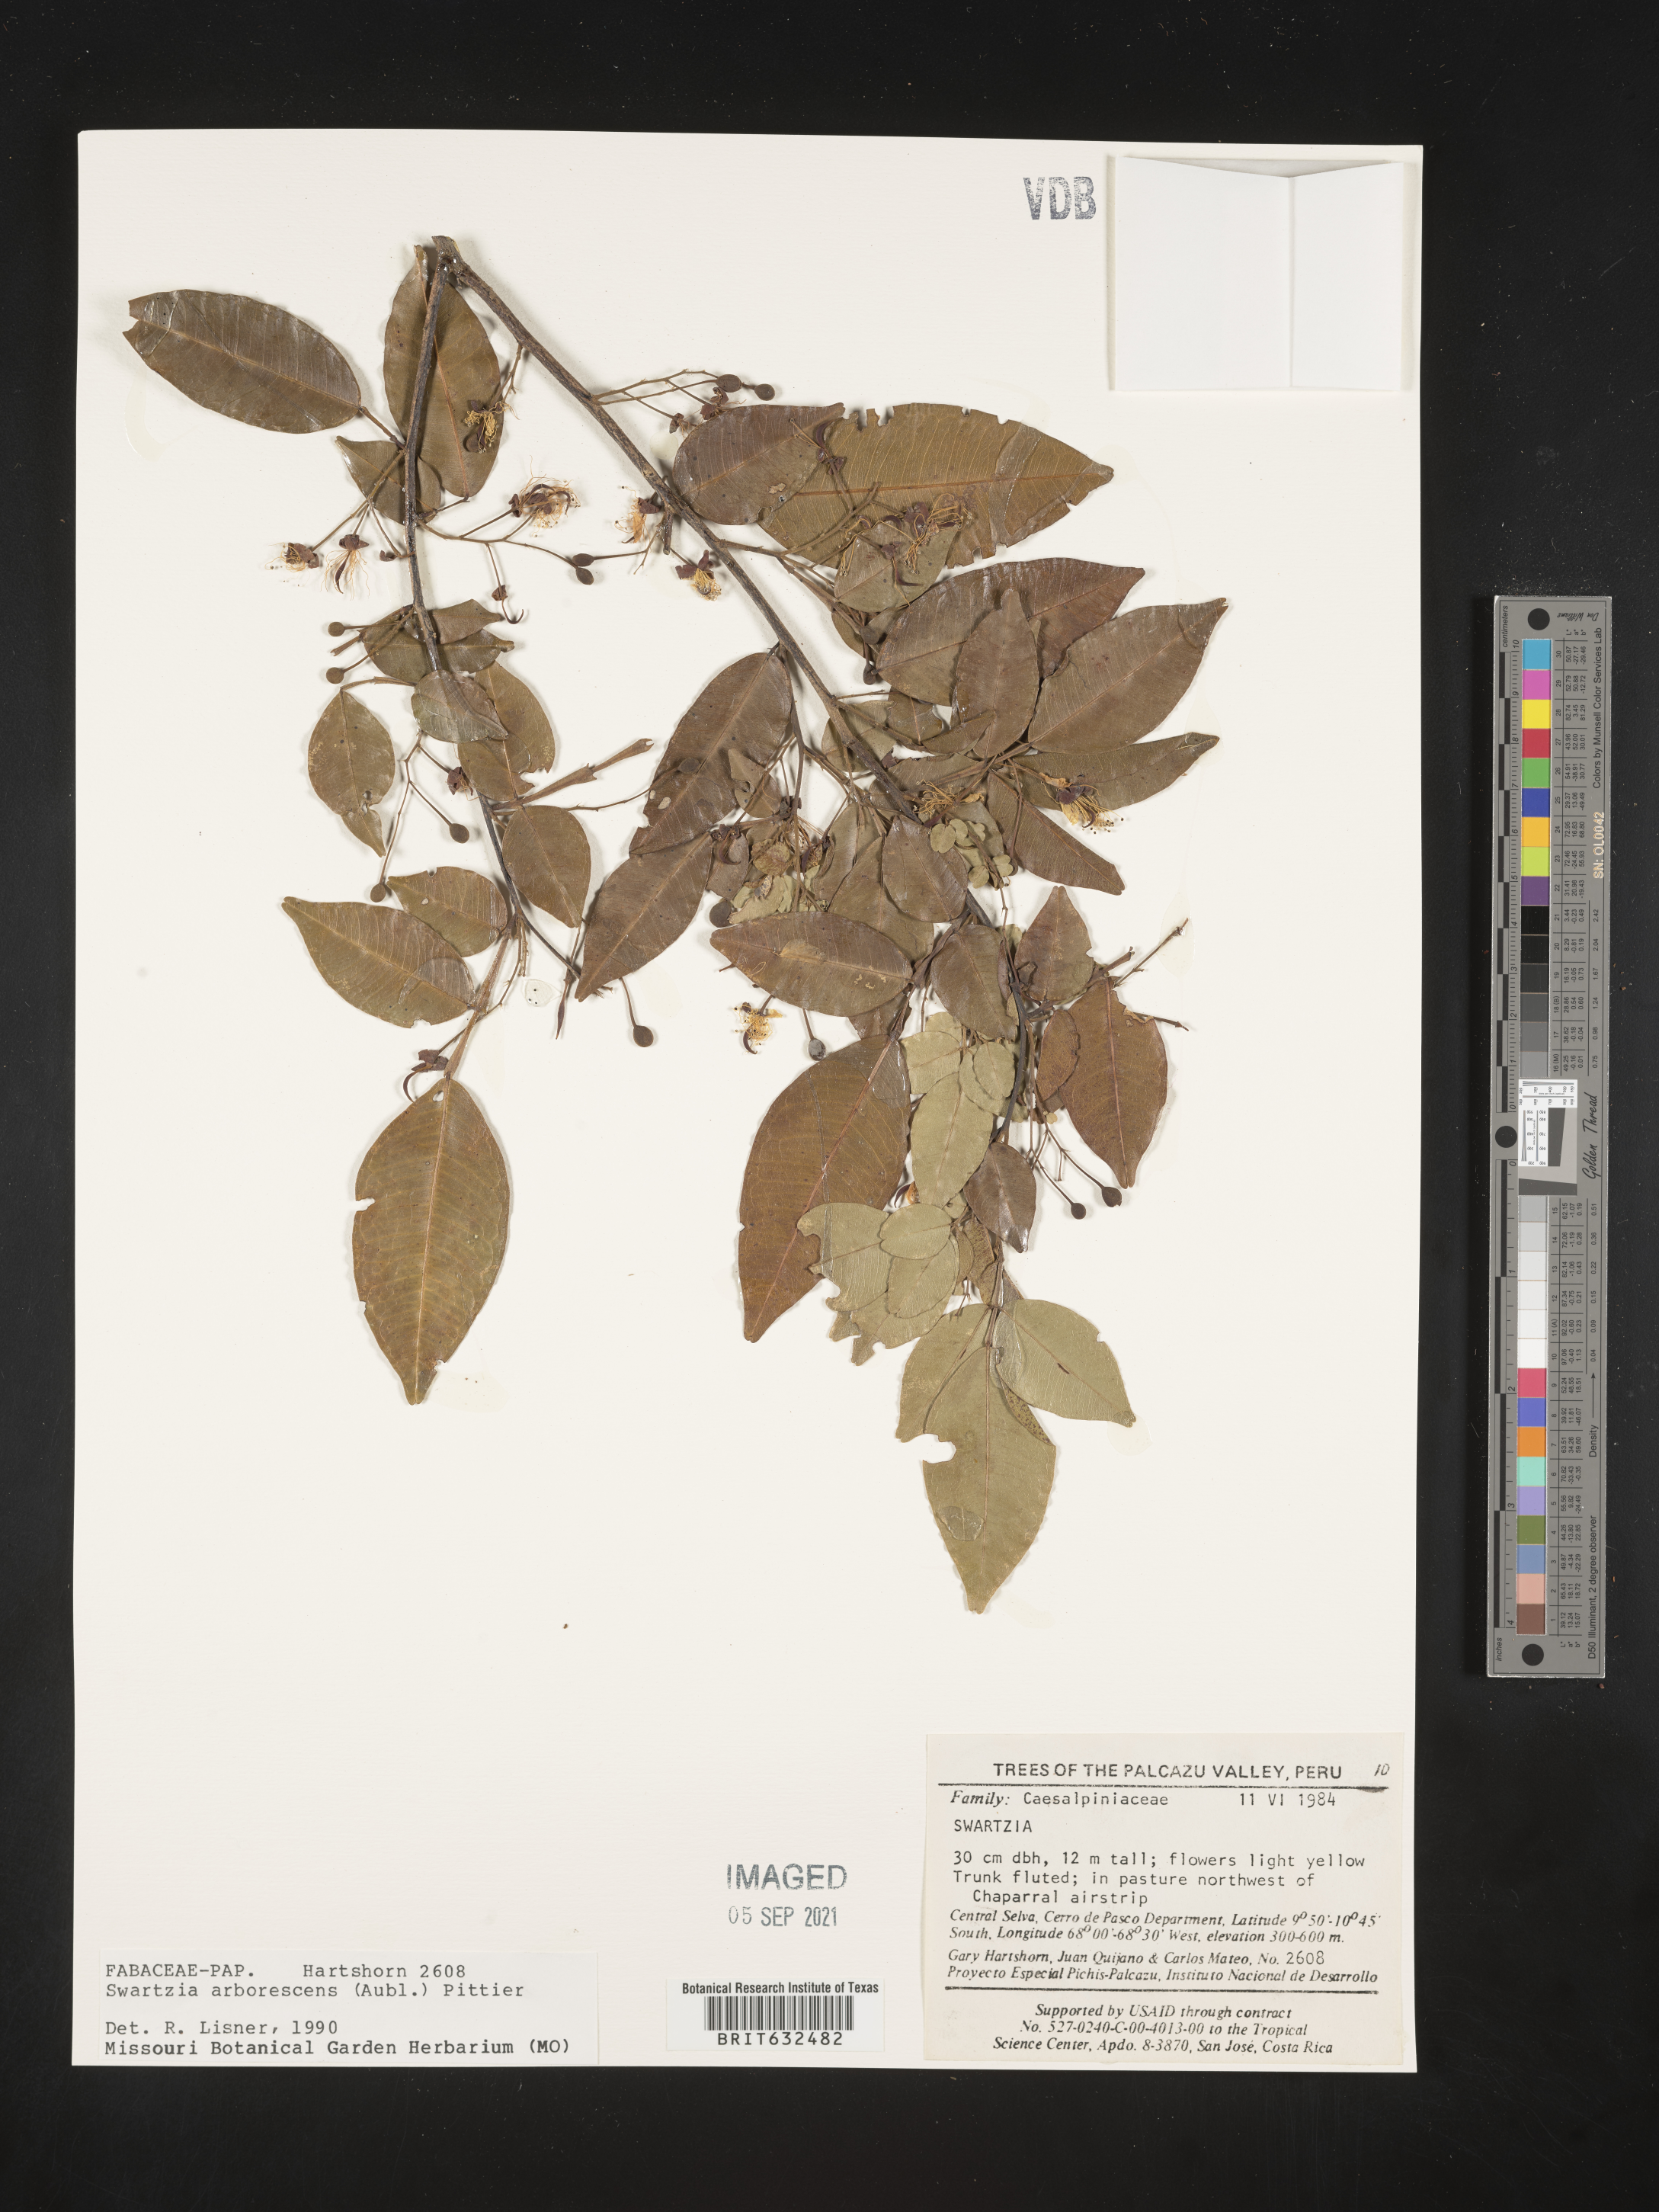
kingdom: Plantae
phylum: Tracheophyta
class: Magnoliopsida
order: Fabales
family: Fabaceae
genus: Swartzia
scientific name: Swartzia
